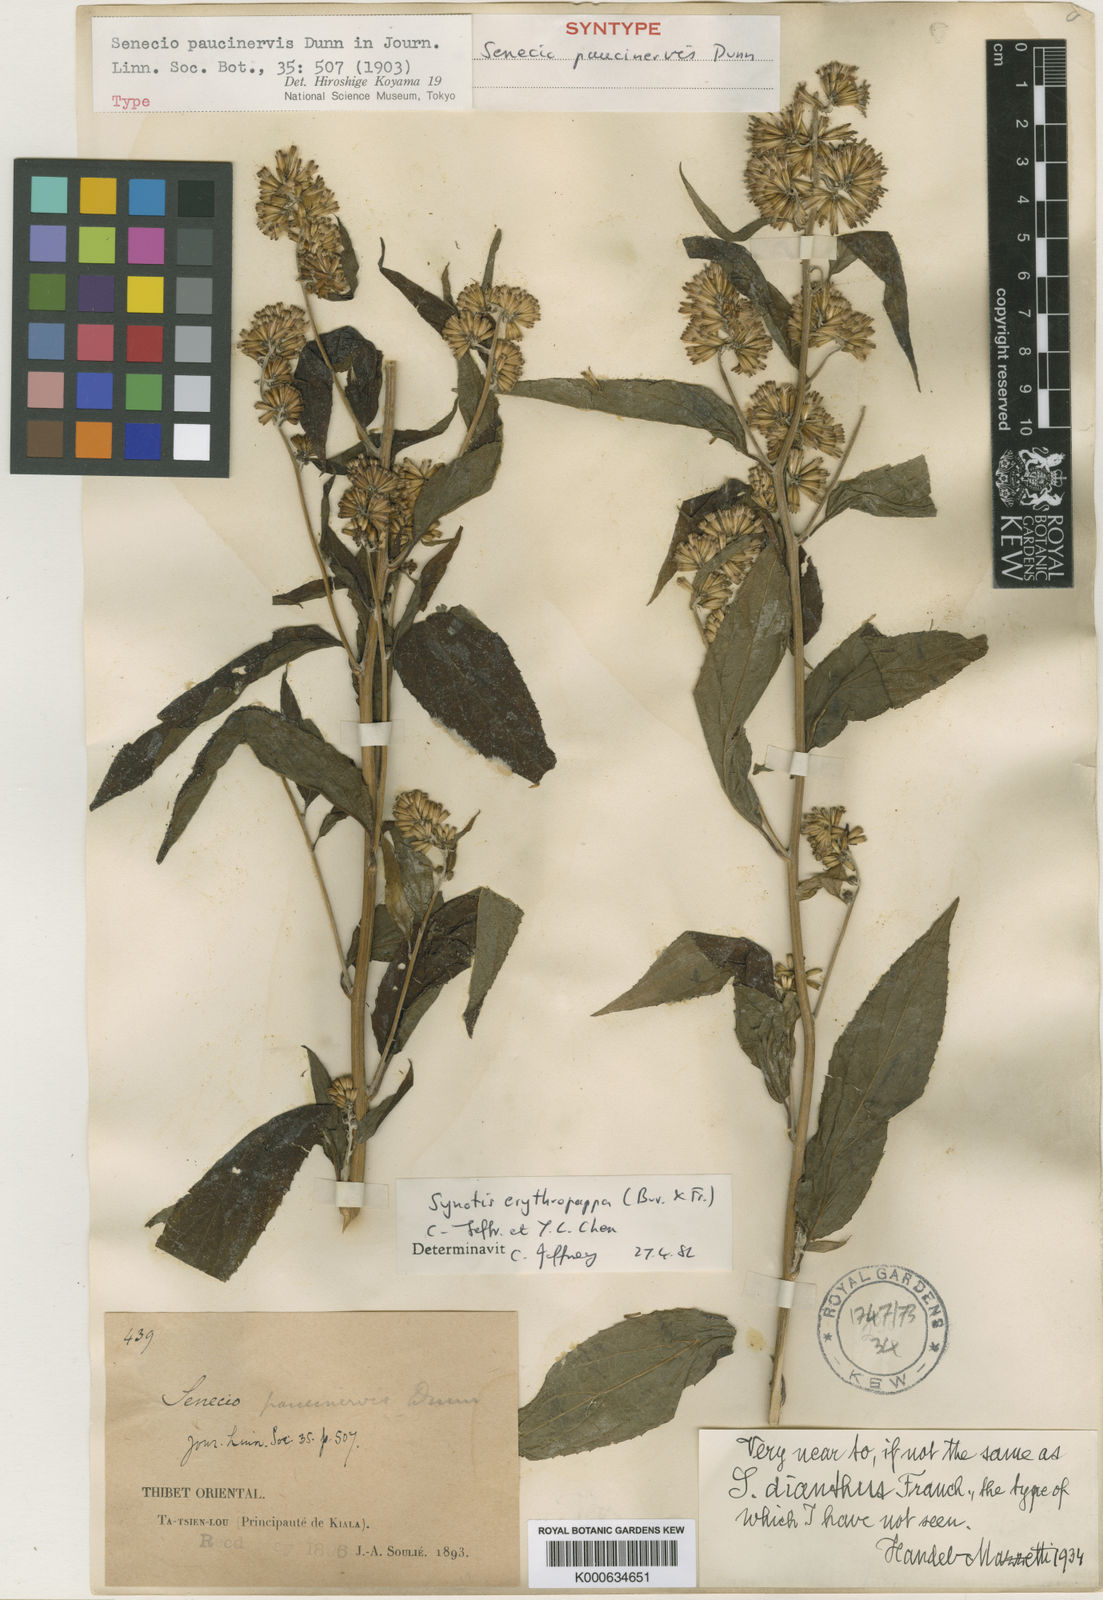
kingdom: Plantae
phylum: Tracheophyta
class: Magnoliopsida
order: Asterales
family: Asteraceae
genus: Synotis
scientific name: Synotis erythropappa
